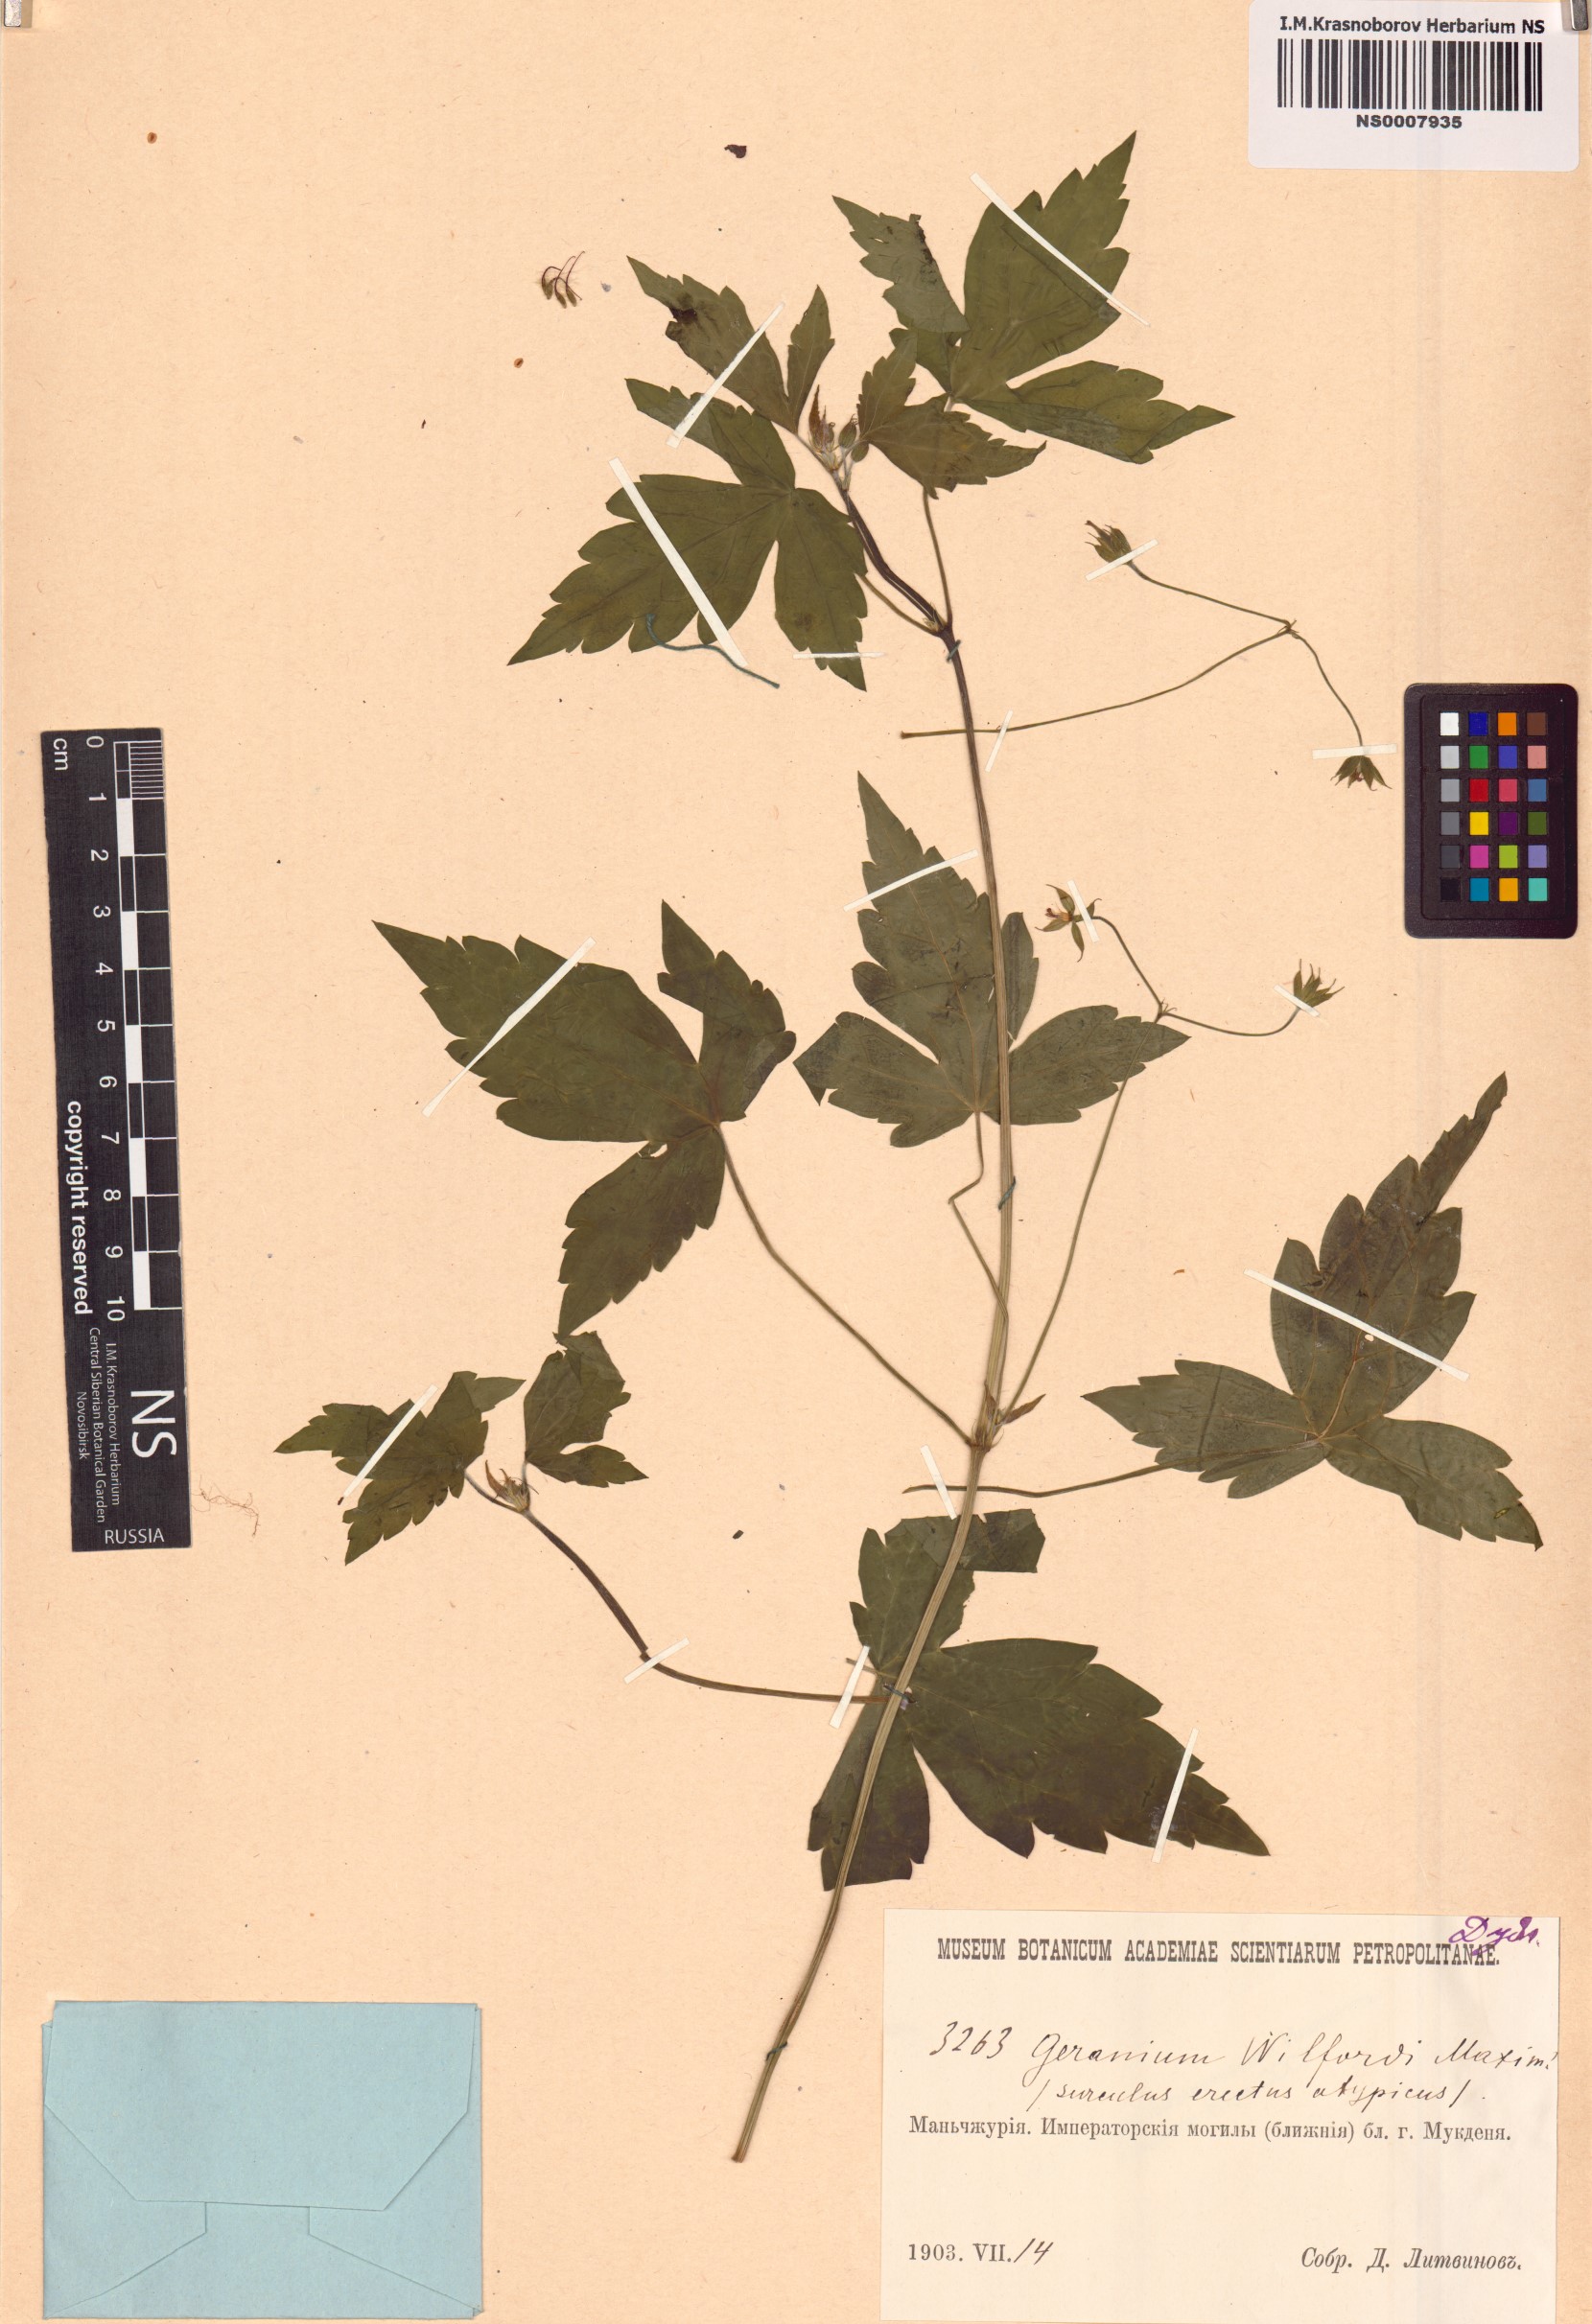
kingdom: Plantae
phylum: Tracheophyta
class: Magnoliopsida
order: Geraniales
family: Geraniaceae
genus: Geranium
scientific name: Geranium wilfordii
